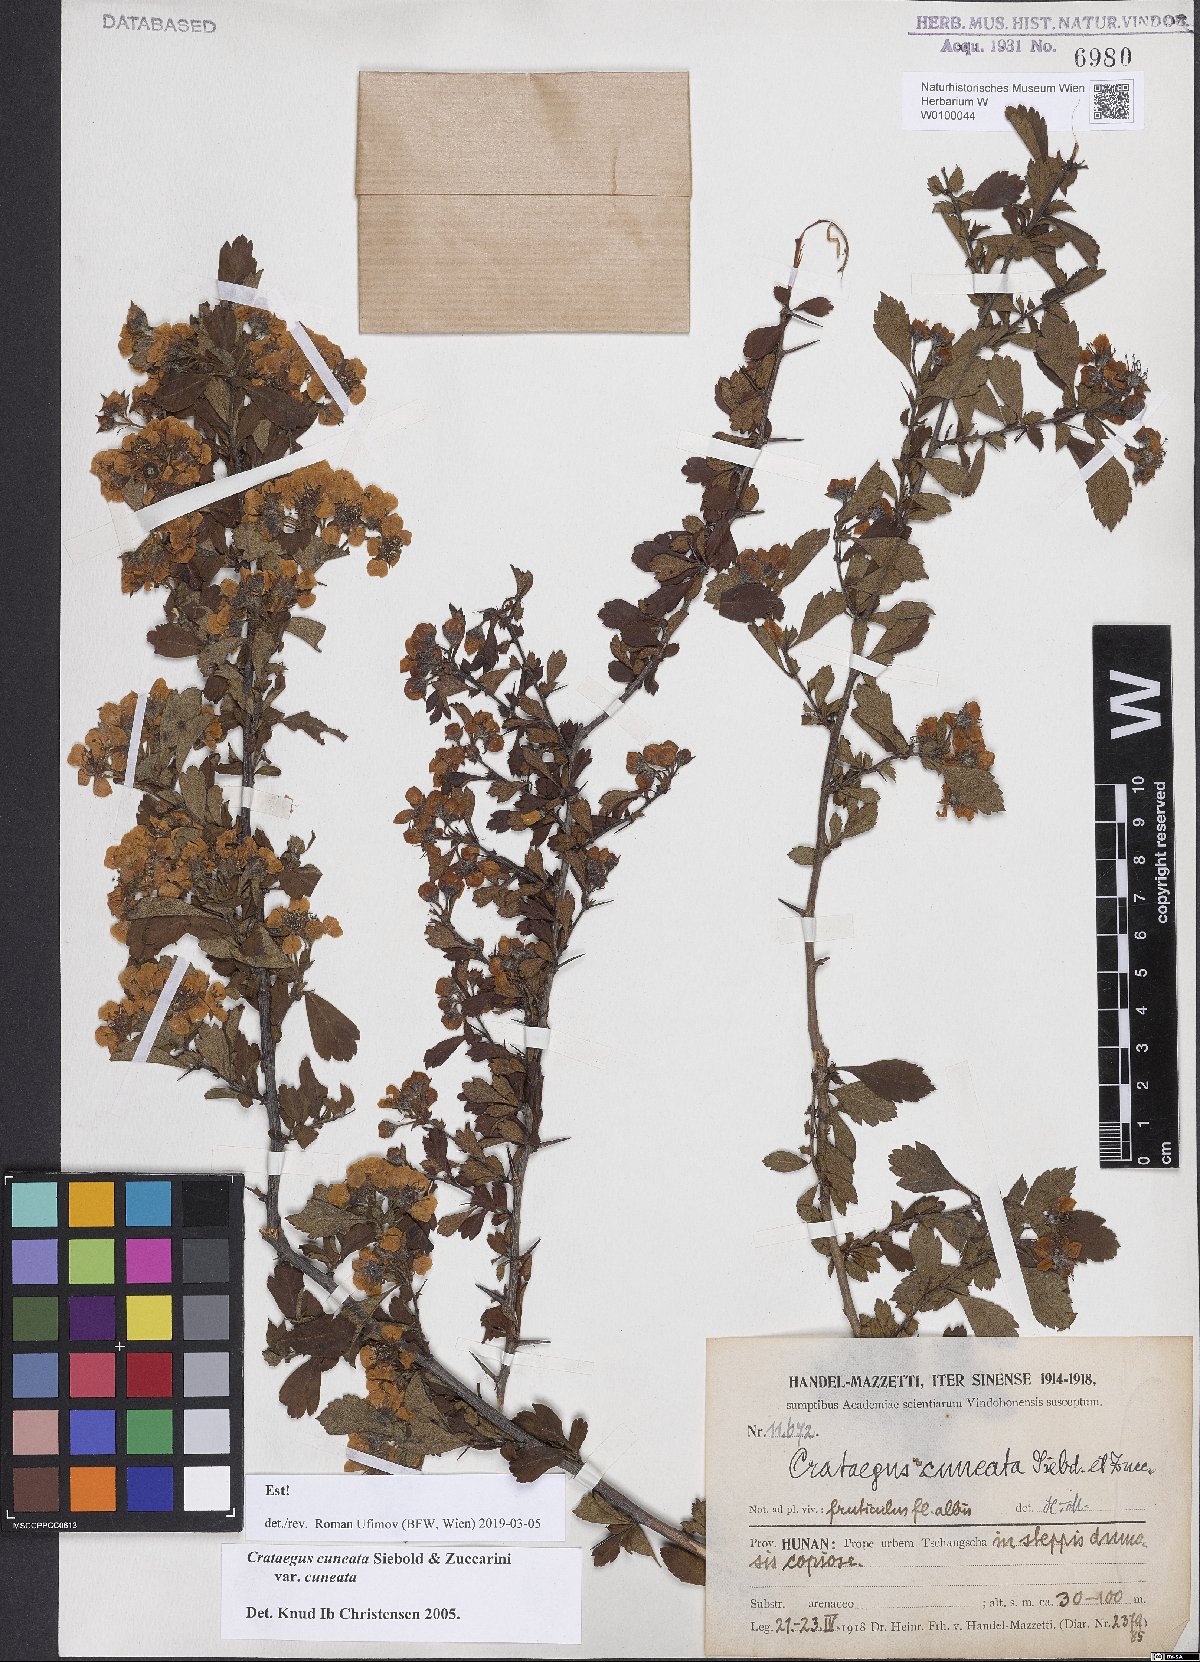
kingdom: Plantae
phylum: Tracheophyta
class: Magnoliopsida
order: Rosales
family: Rosaceae
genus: Crataegus
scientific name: Crataegus cuneata
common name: Chinese hawthorn
